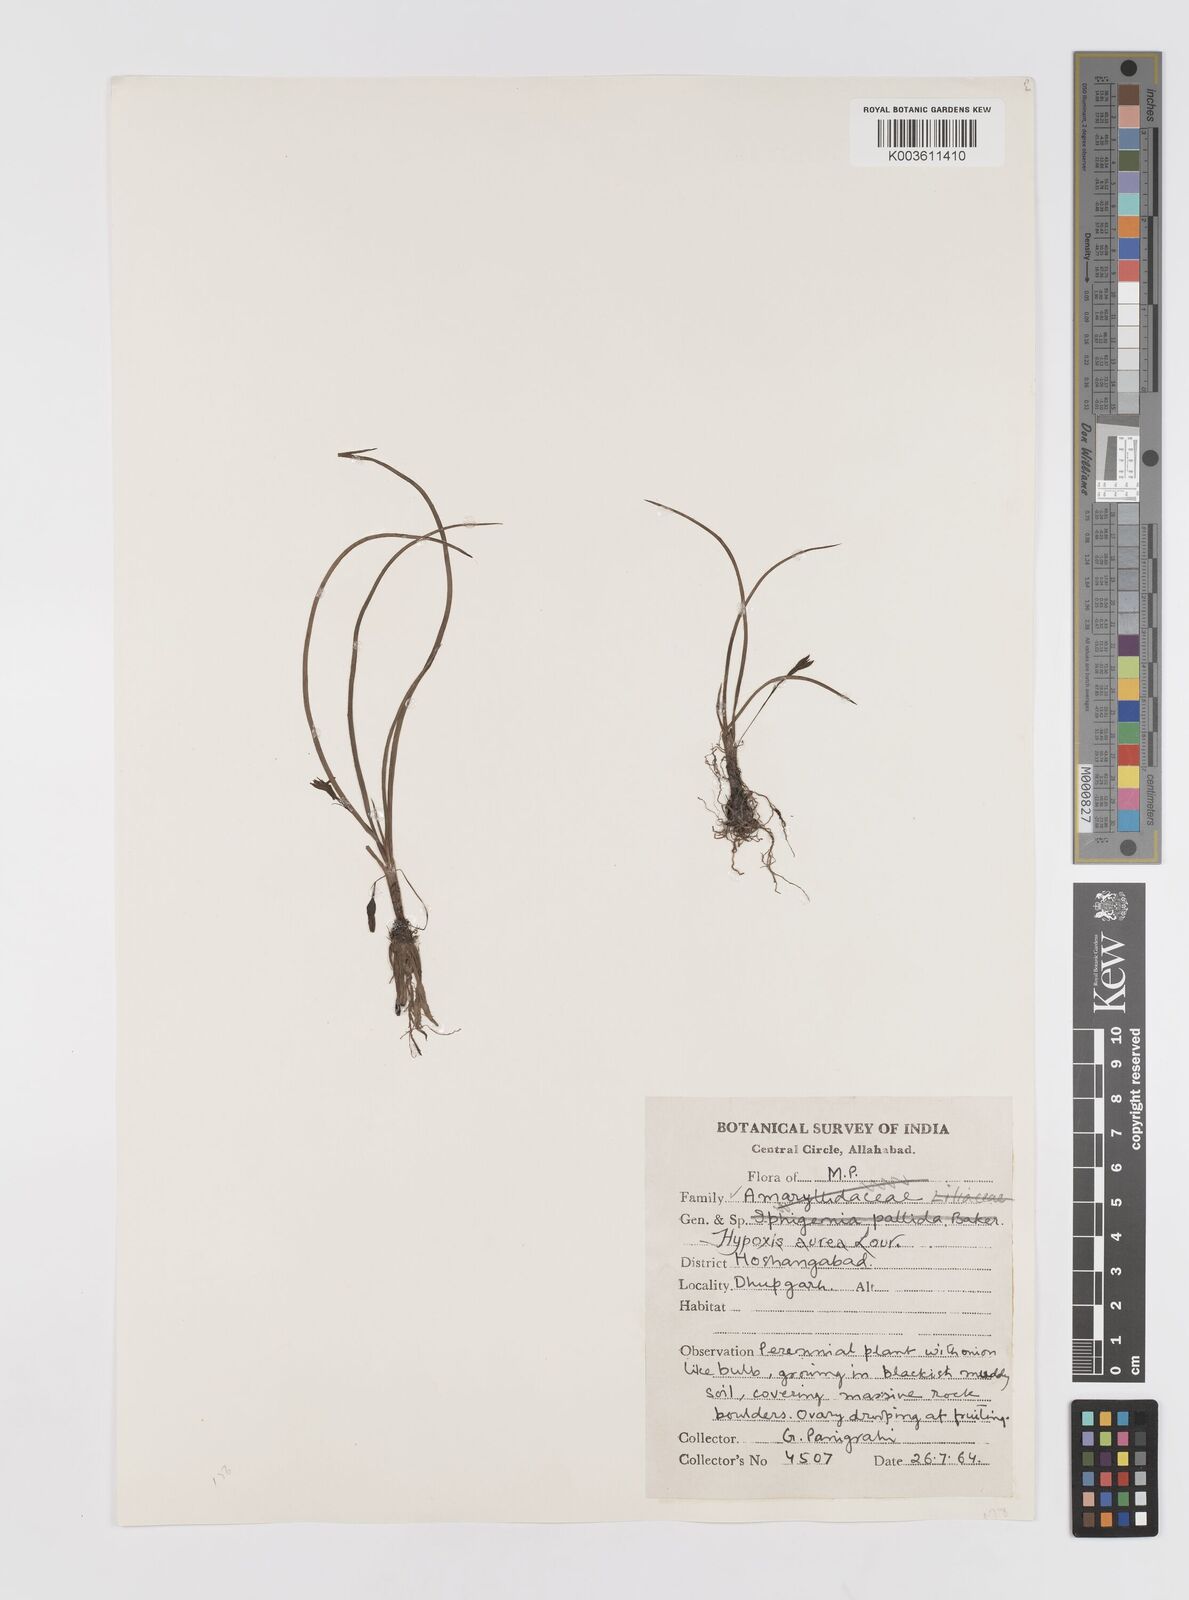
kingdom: Plantae
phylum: Tracheophyta
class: Liliopsida
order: Asparagales
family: Hypoxidaceae
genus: Hypoxis
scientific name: Hypoxis aurea
